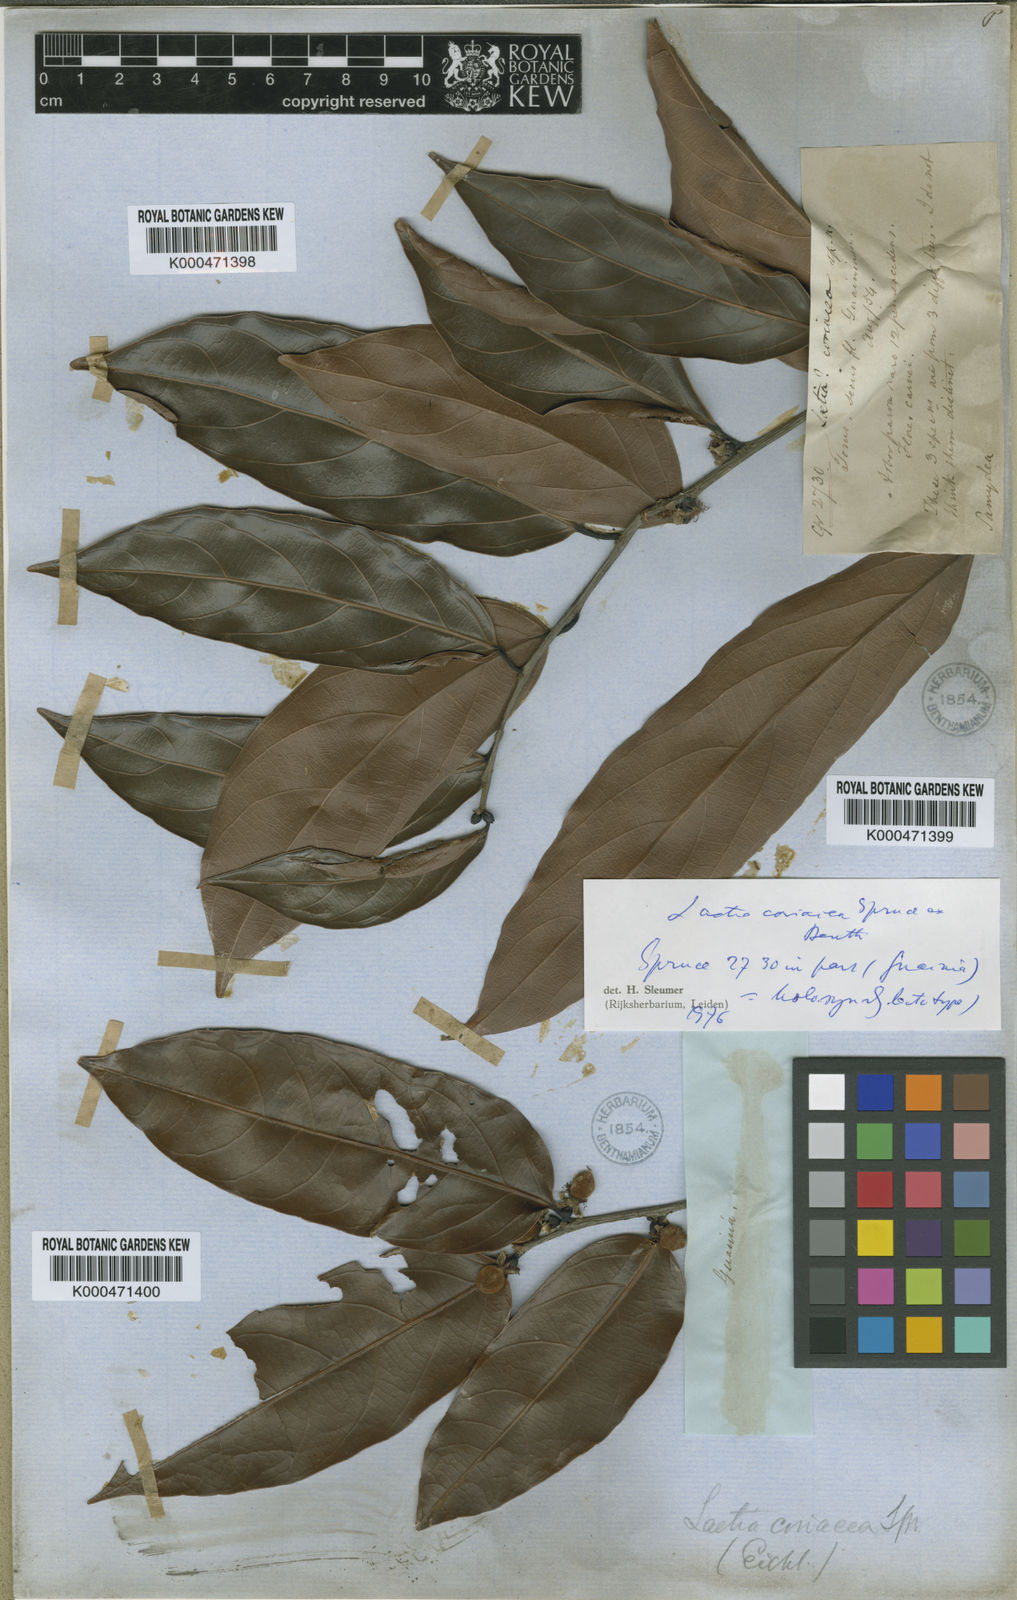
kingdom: Plantae
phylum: Tracheophyta
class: Magnoliopsida
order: Malpighiales
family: Salicaceae
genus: Irenodendron
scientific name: Irenodendron coriaceum
